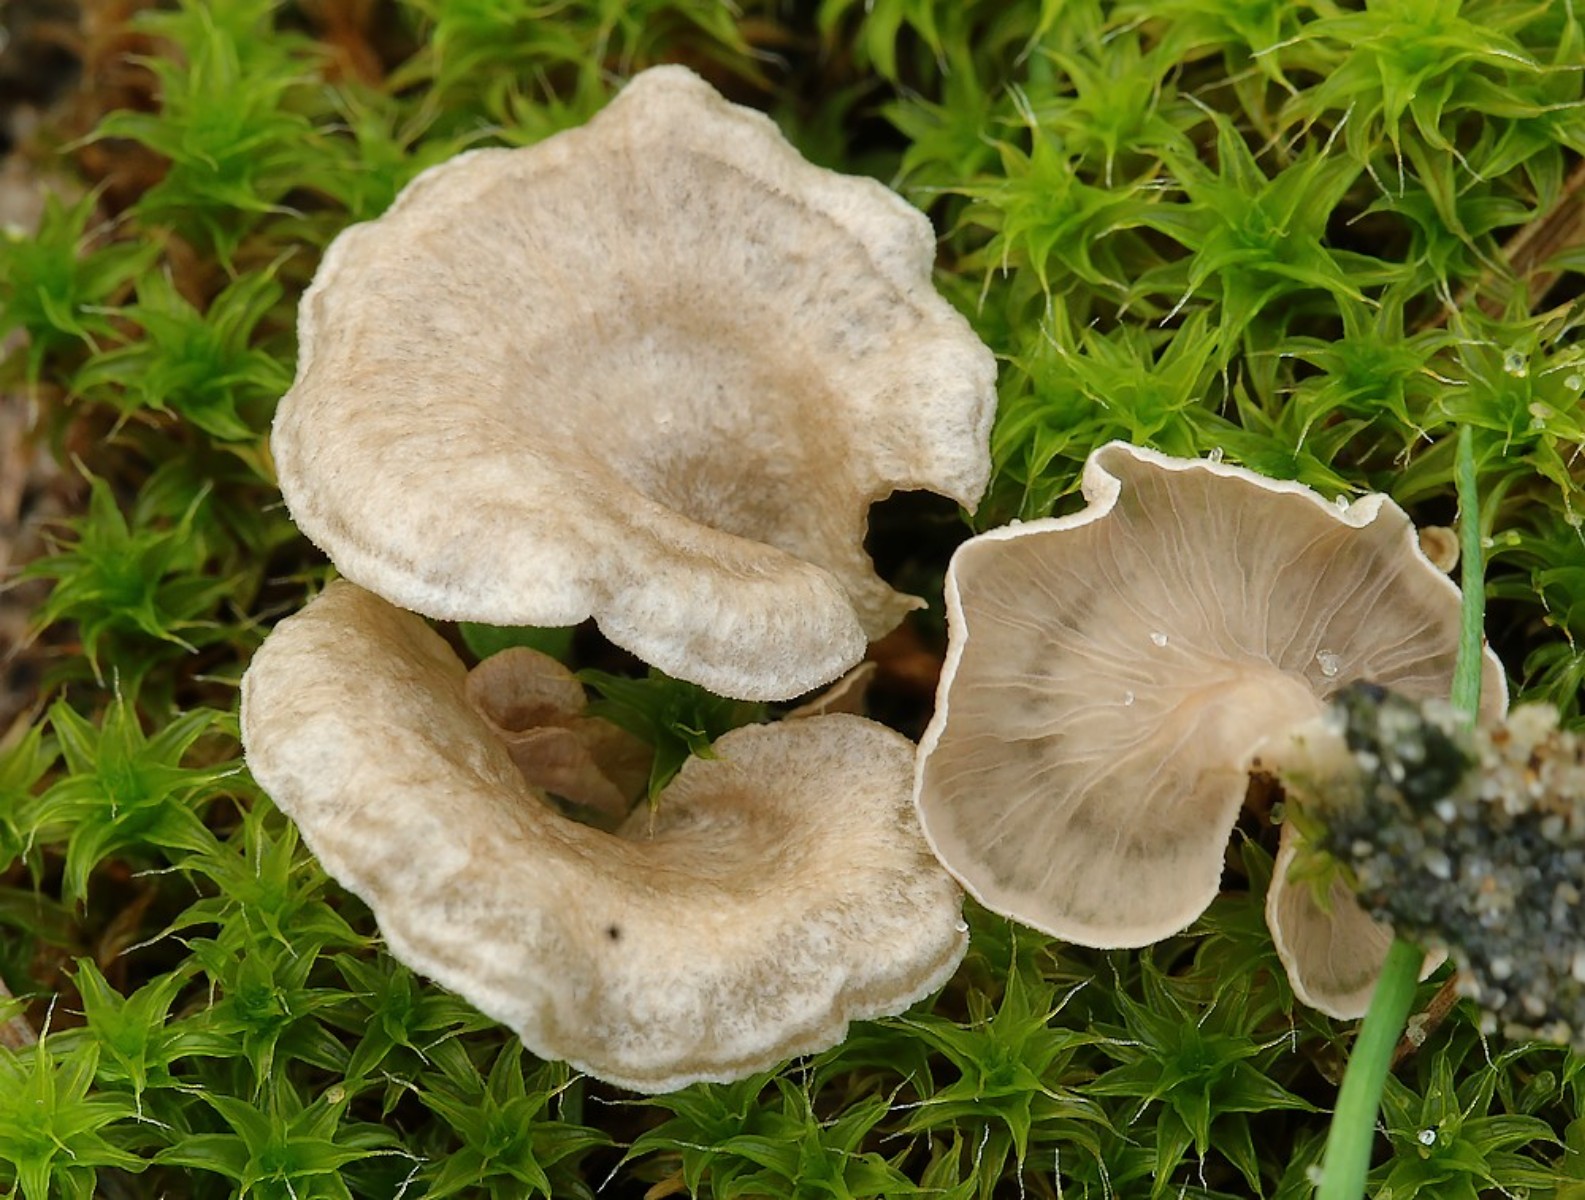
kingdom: Fungi
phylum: Basidiomycota
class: Agaricomycetes
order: Agaricales
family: Hygrophoraceae
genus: Arrhenia
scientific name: Arrhenia spathulata
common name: skæv fontænehat
